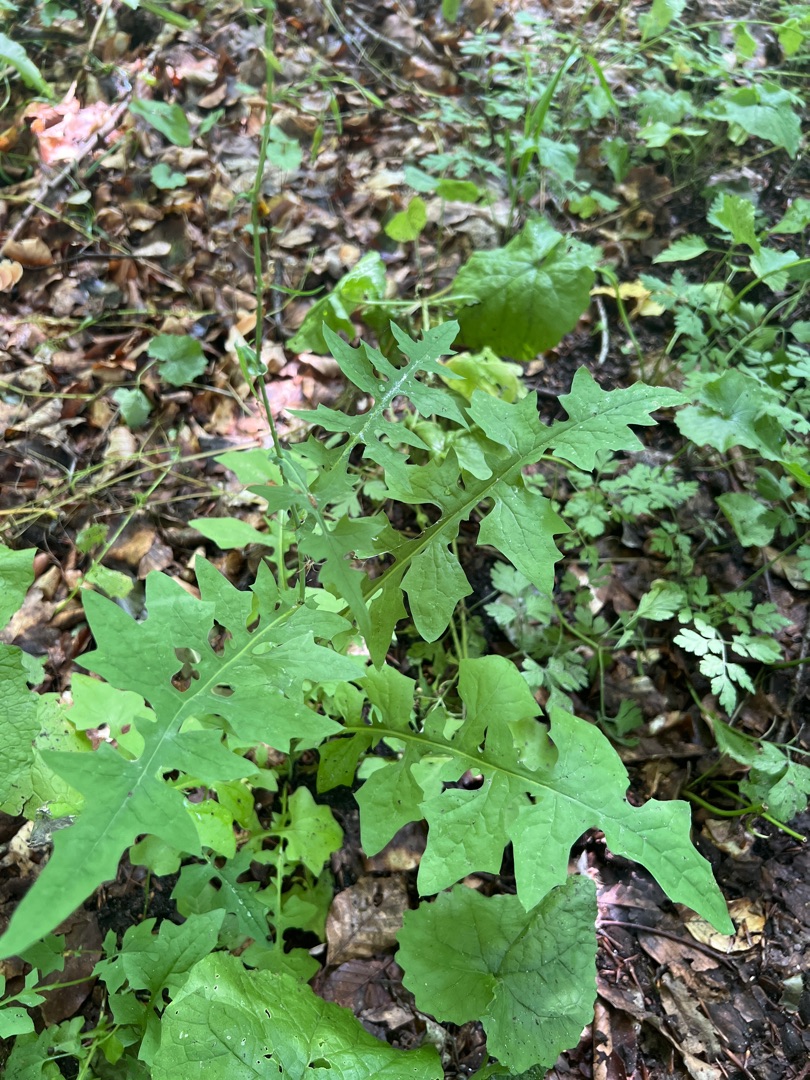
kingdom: Plantae
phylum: Tracheophyta
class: Magnoliopsida
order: Asterales
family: Asteraceae
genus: Mycelis
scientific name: Mycelis muralis
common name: Skov-salat
